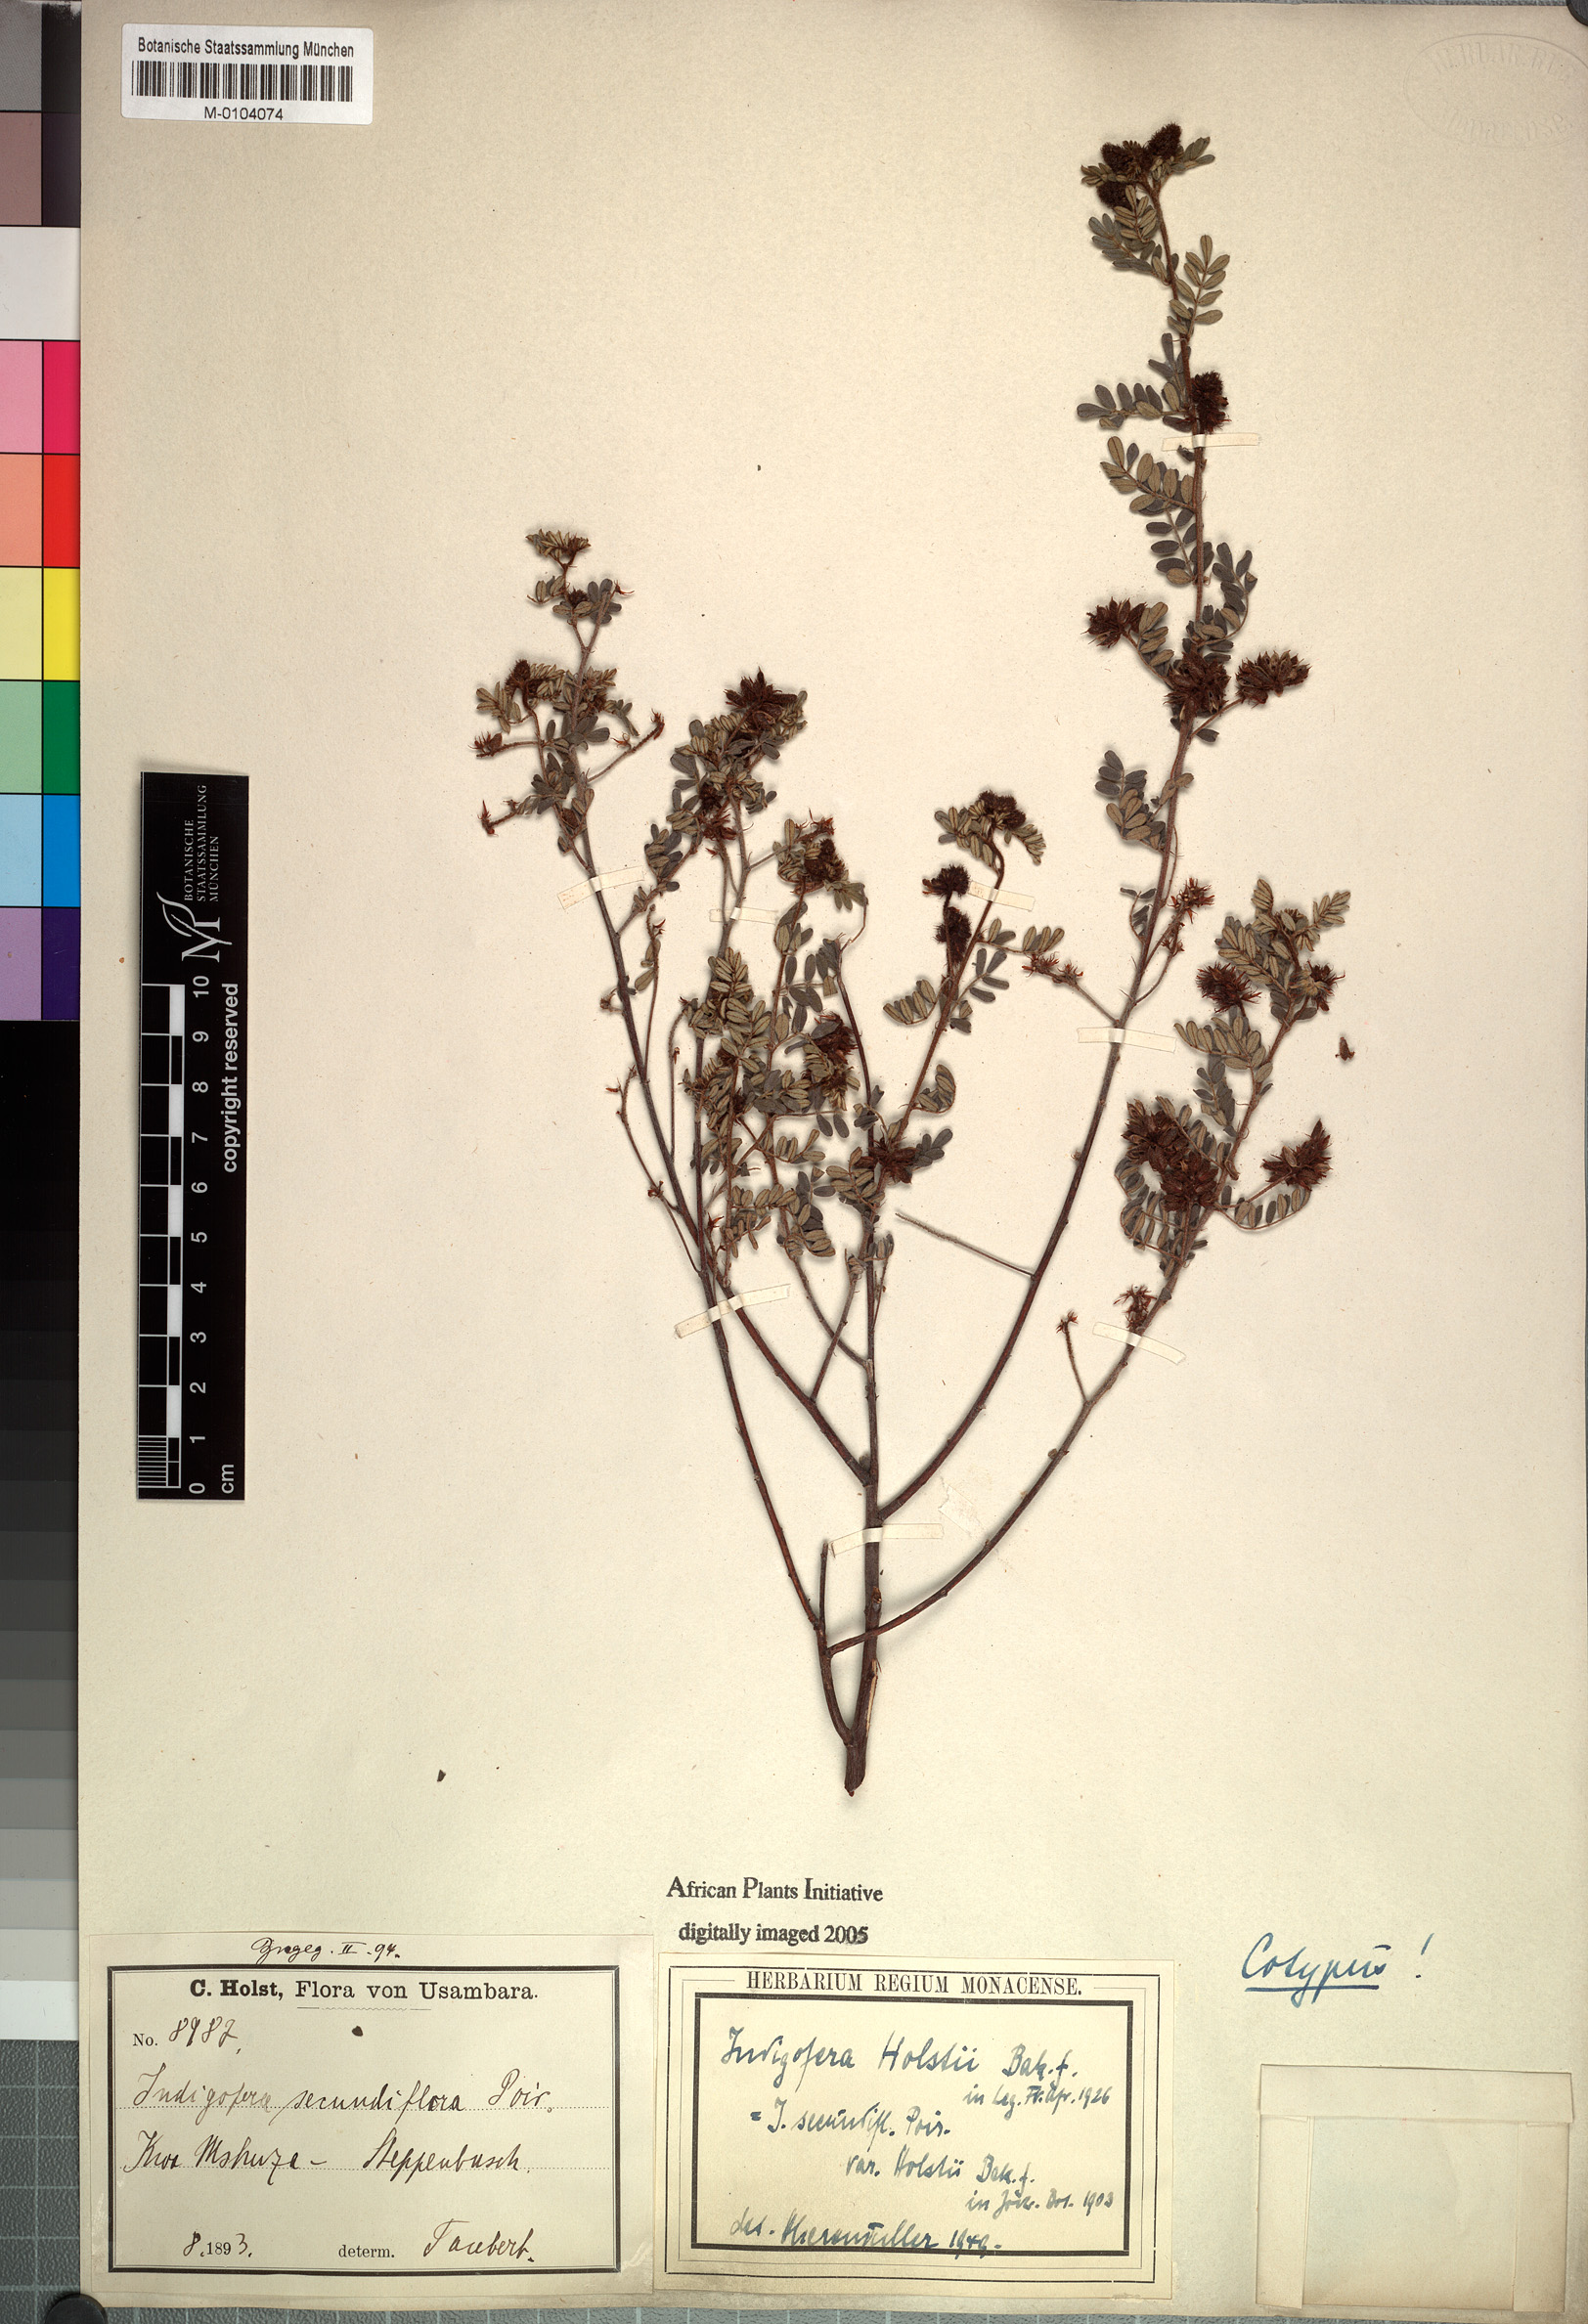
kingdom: Plantae
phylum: Tracheophyta
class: Magnoliopsida
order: Fabales
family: Fabaceae
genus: Indigofera
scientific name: Indigofera atriceps
